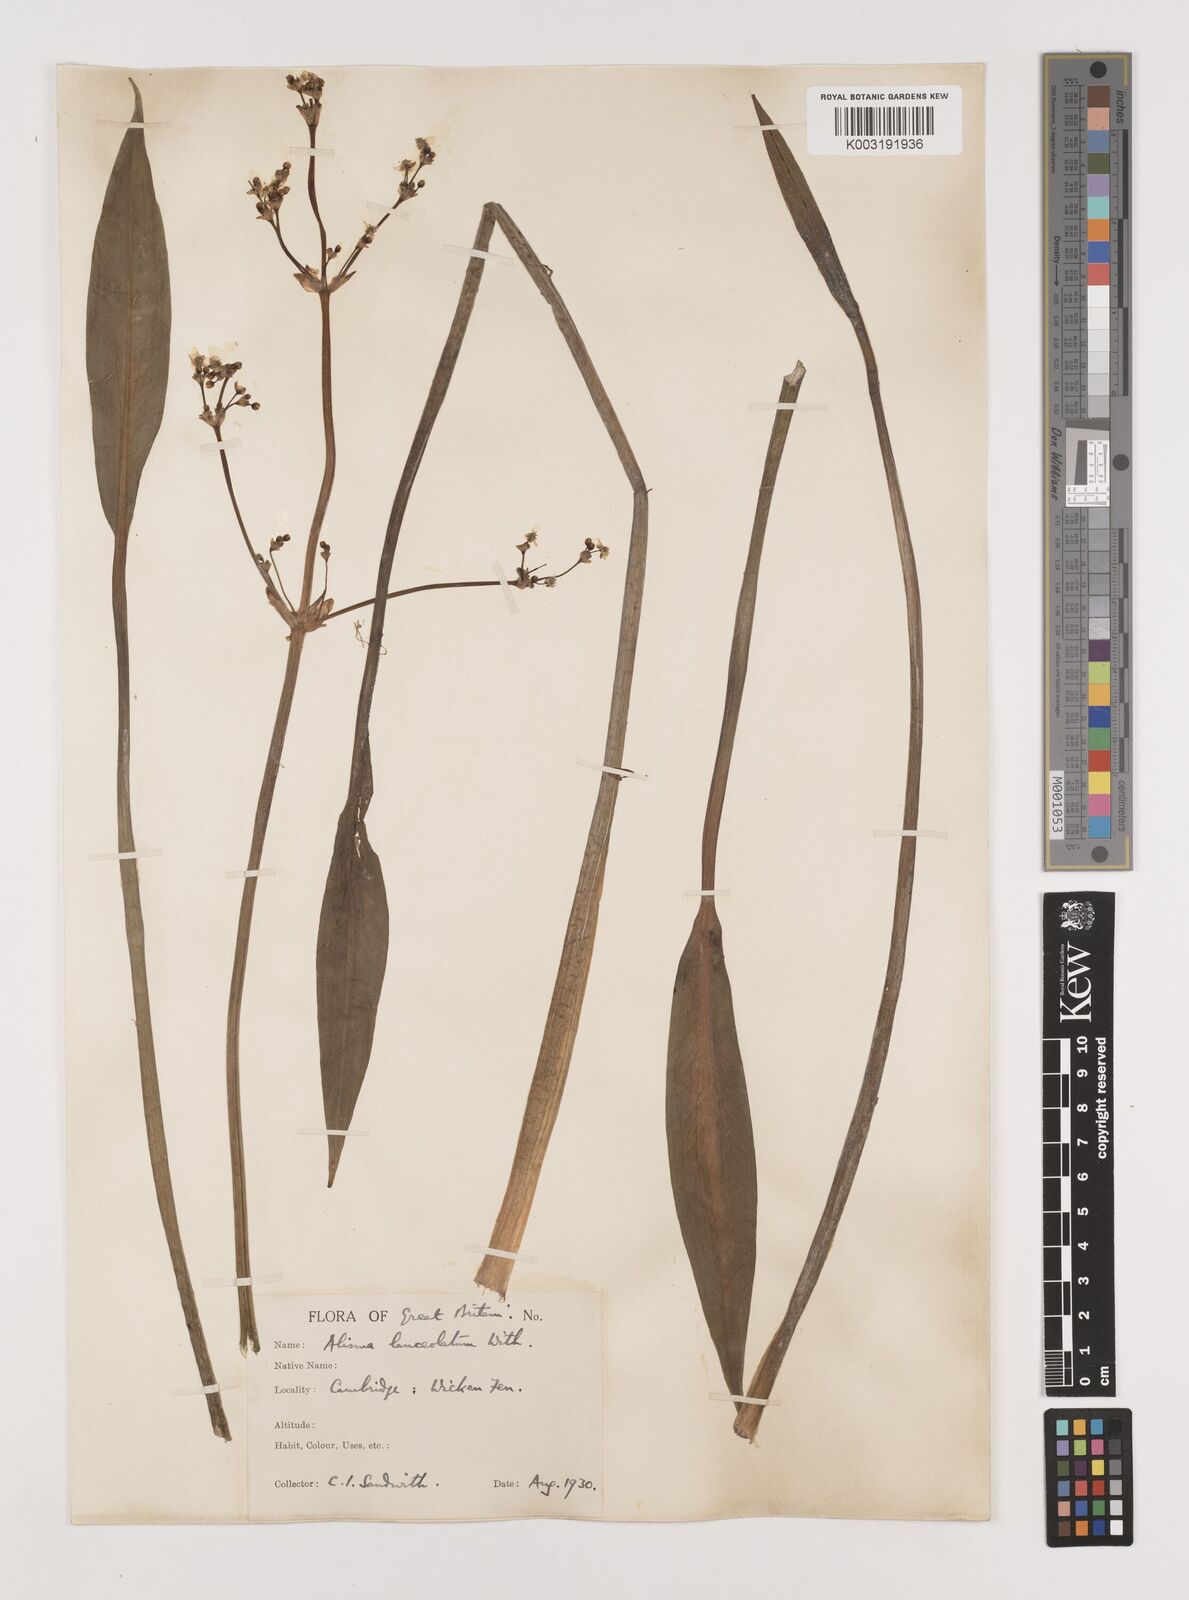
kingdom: Plantae
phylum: Tracheophyta
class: Liliopsida
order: Alismatales
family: Alismataceae
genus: Alisma
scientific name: Alisma lanceolatum
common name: Narrow-leaved water-plantain
